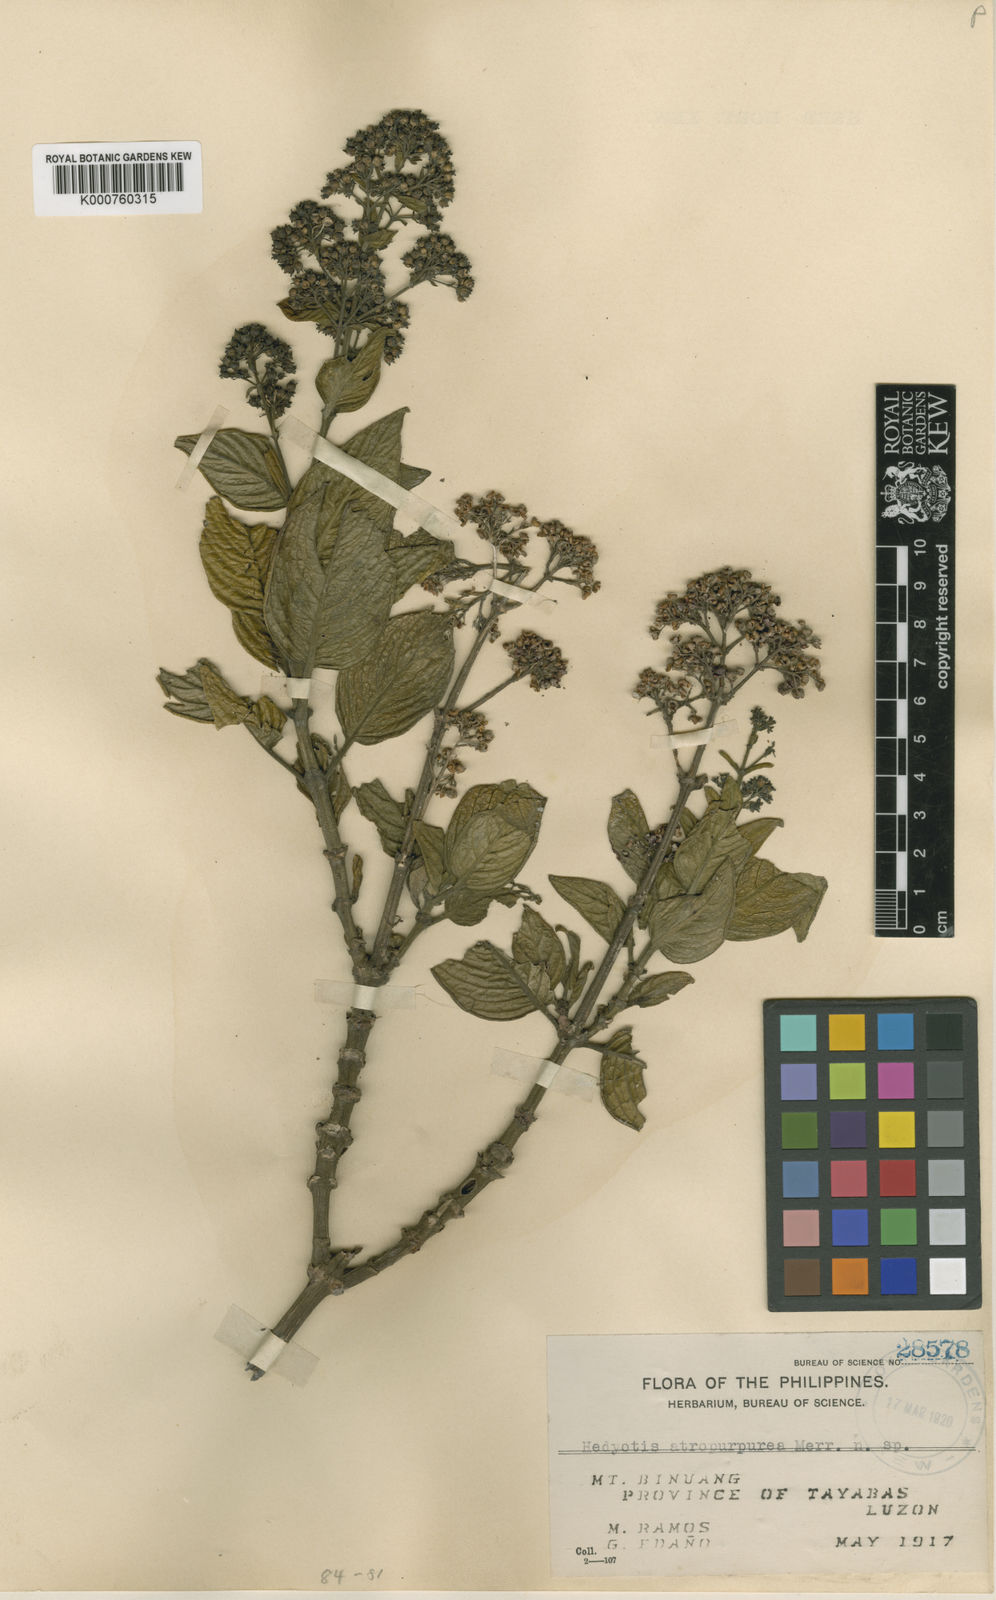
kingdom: Plantae
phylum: Tracheophyta
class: Magnoliopsida
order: Gentianales
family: Rubiaceae
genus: Hedyotis
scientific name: Hedyotis atropurpurea
